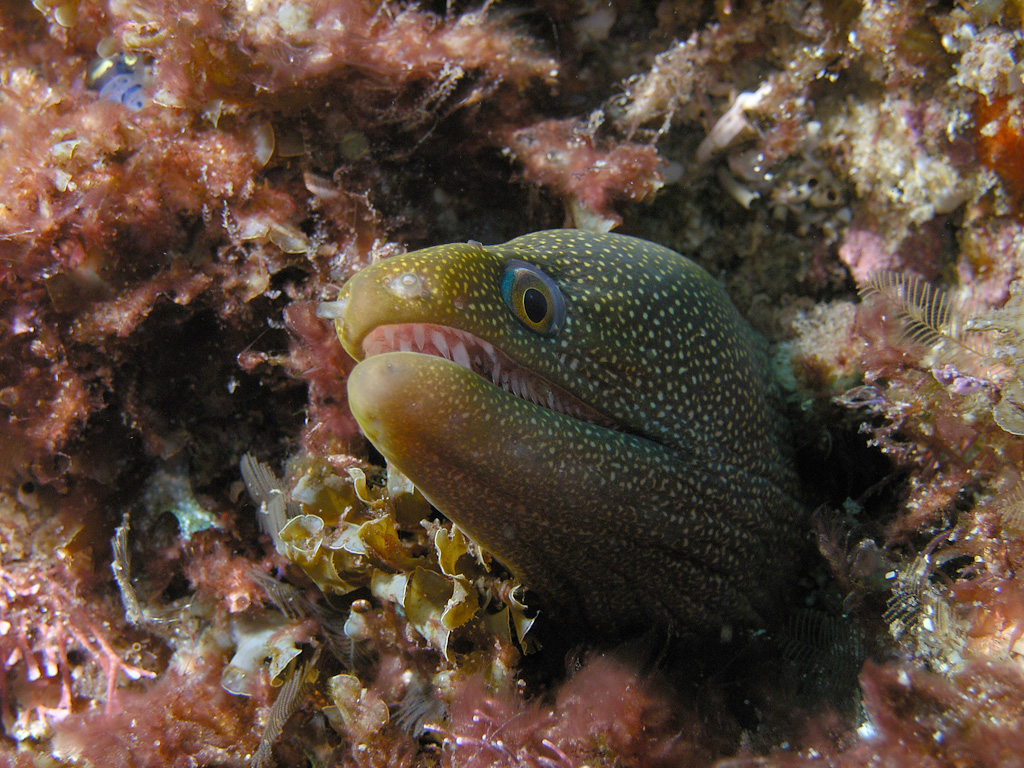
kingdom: Animalia
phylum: Chordata
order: Anguilliformes
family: Muraenidae
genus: Gymnothorax
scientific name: Gymnothorax eurostus
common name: Stout moray
